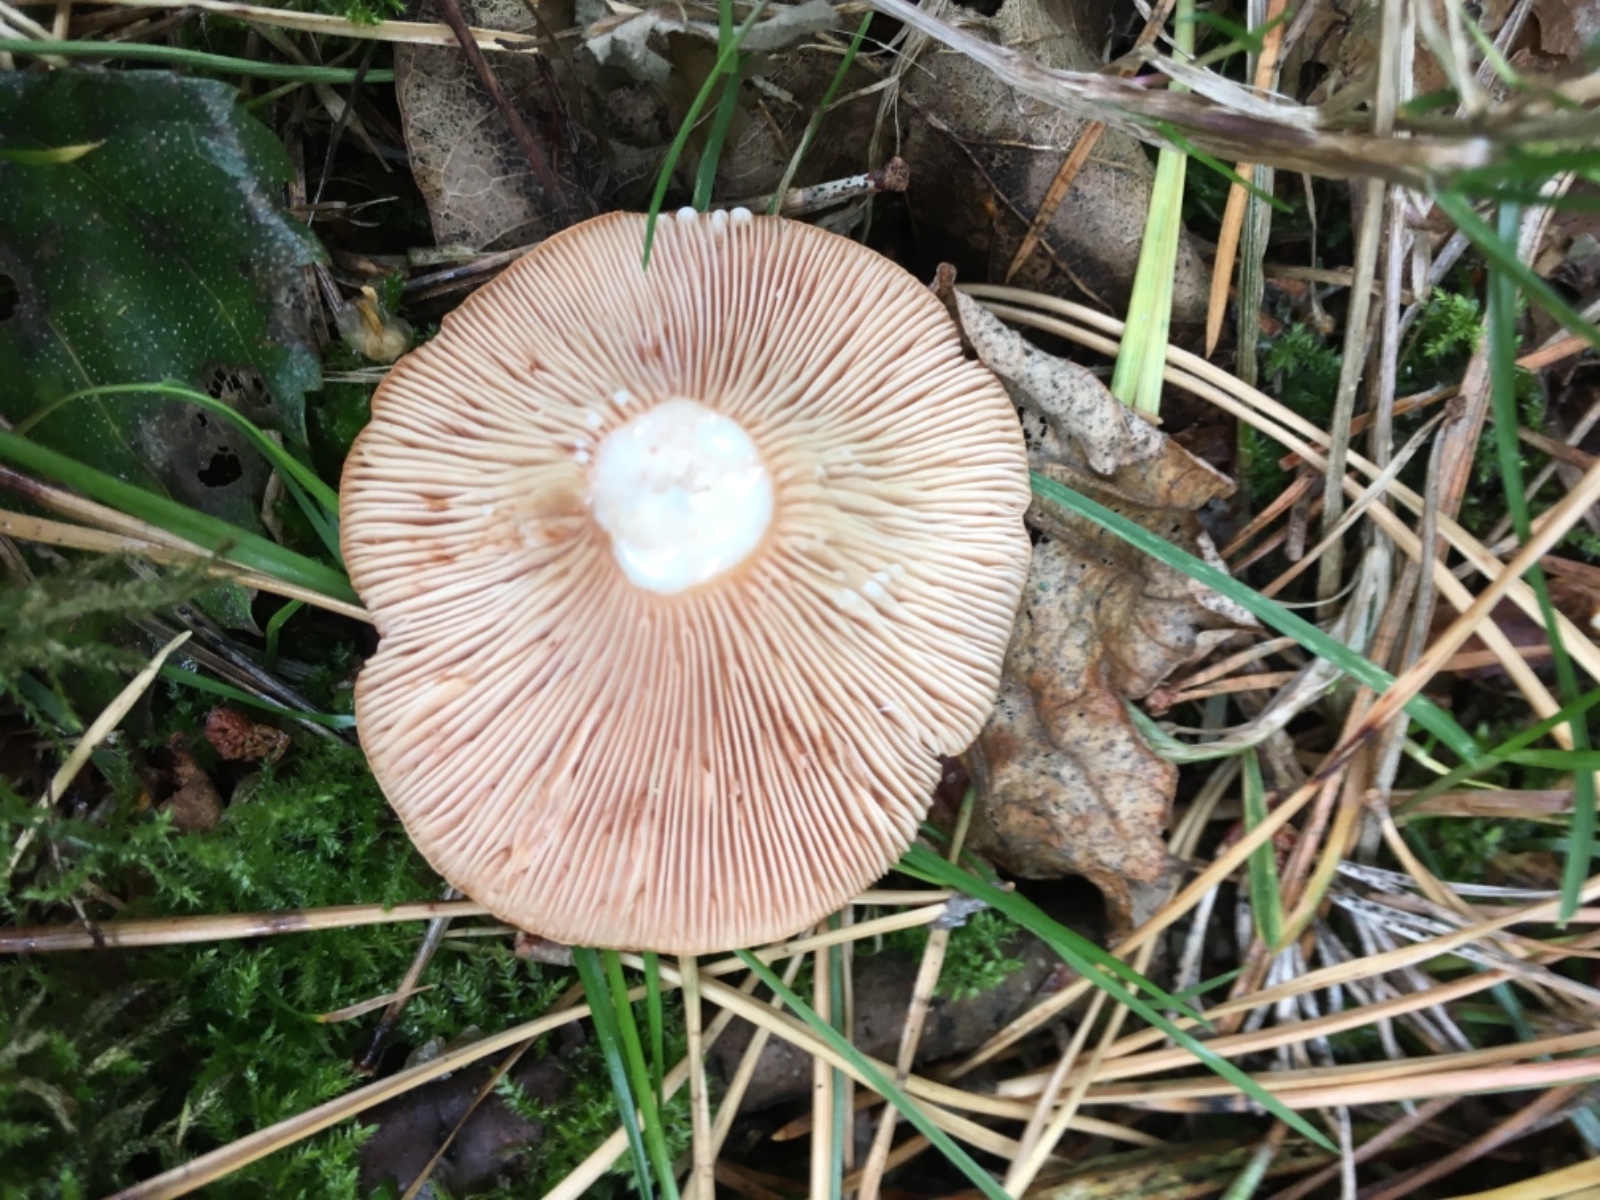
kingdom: Fungi
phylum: Basidiomycota
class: Agaricomycetes
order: Russulales
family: Russulaceae
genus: Lactarius
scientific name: Lactarius tabidus
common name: rynket mælkehat
